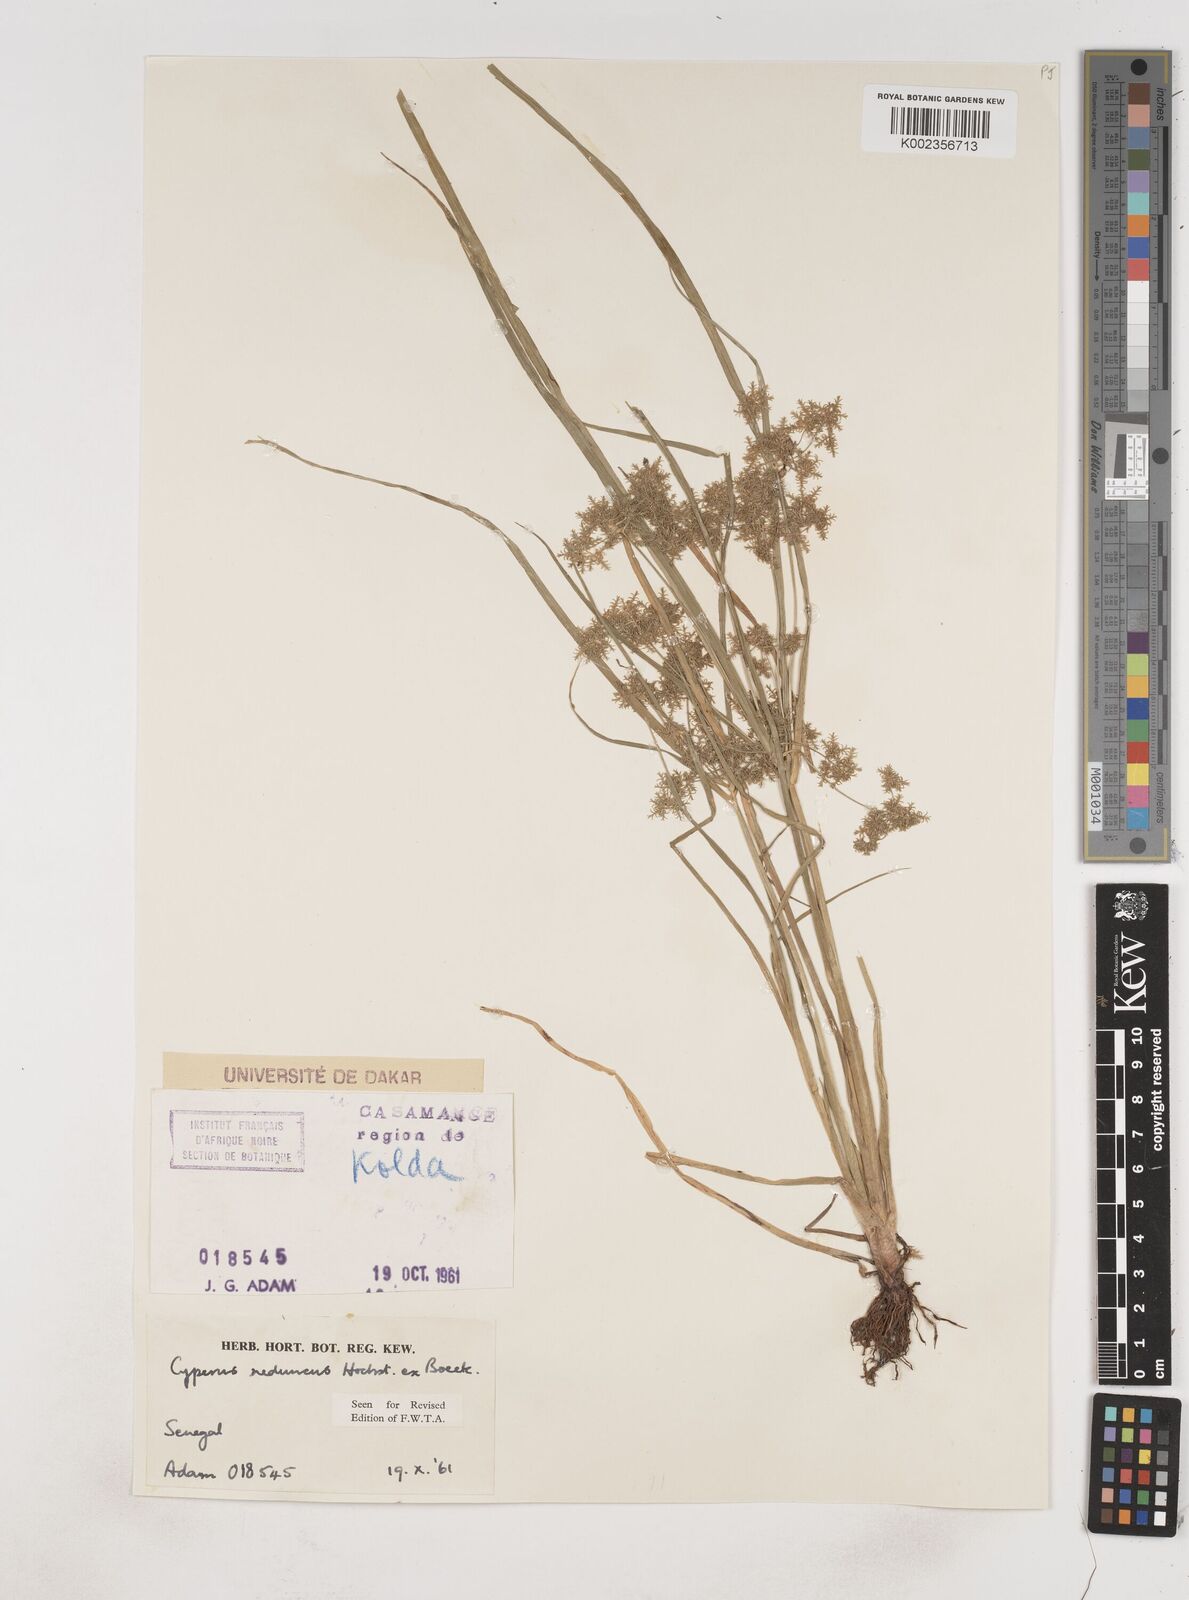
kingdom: Plantae
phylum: Tracheophyta
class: Liliopsida
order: Poales
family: Cyperaceae
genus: Cyperus
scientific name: Cyperus reduncus
